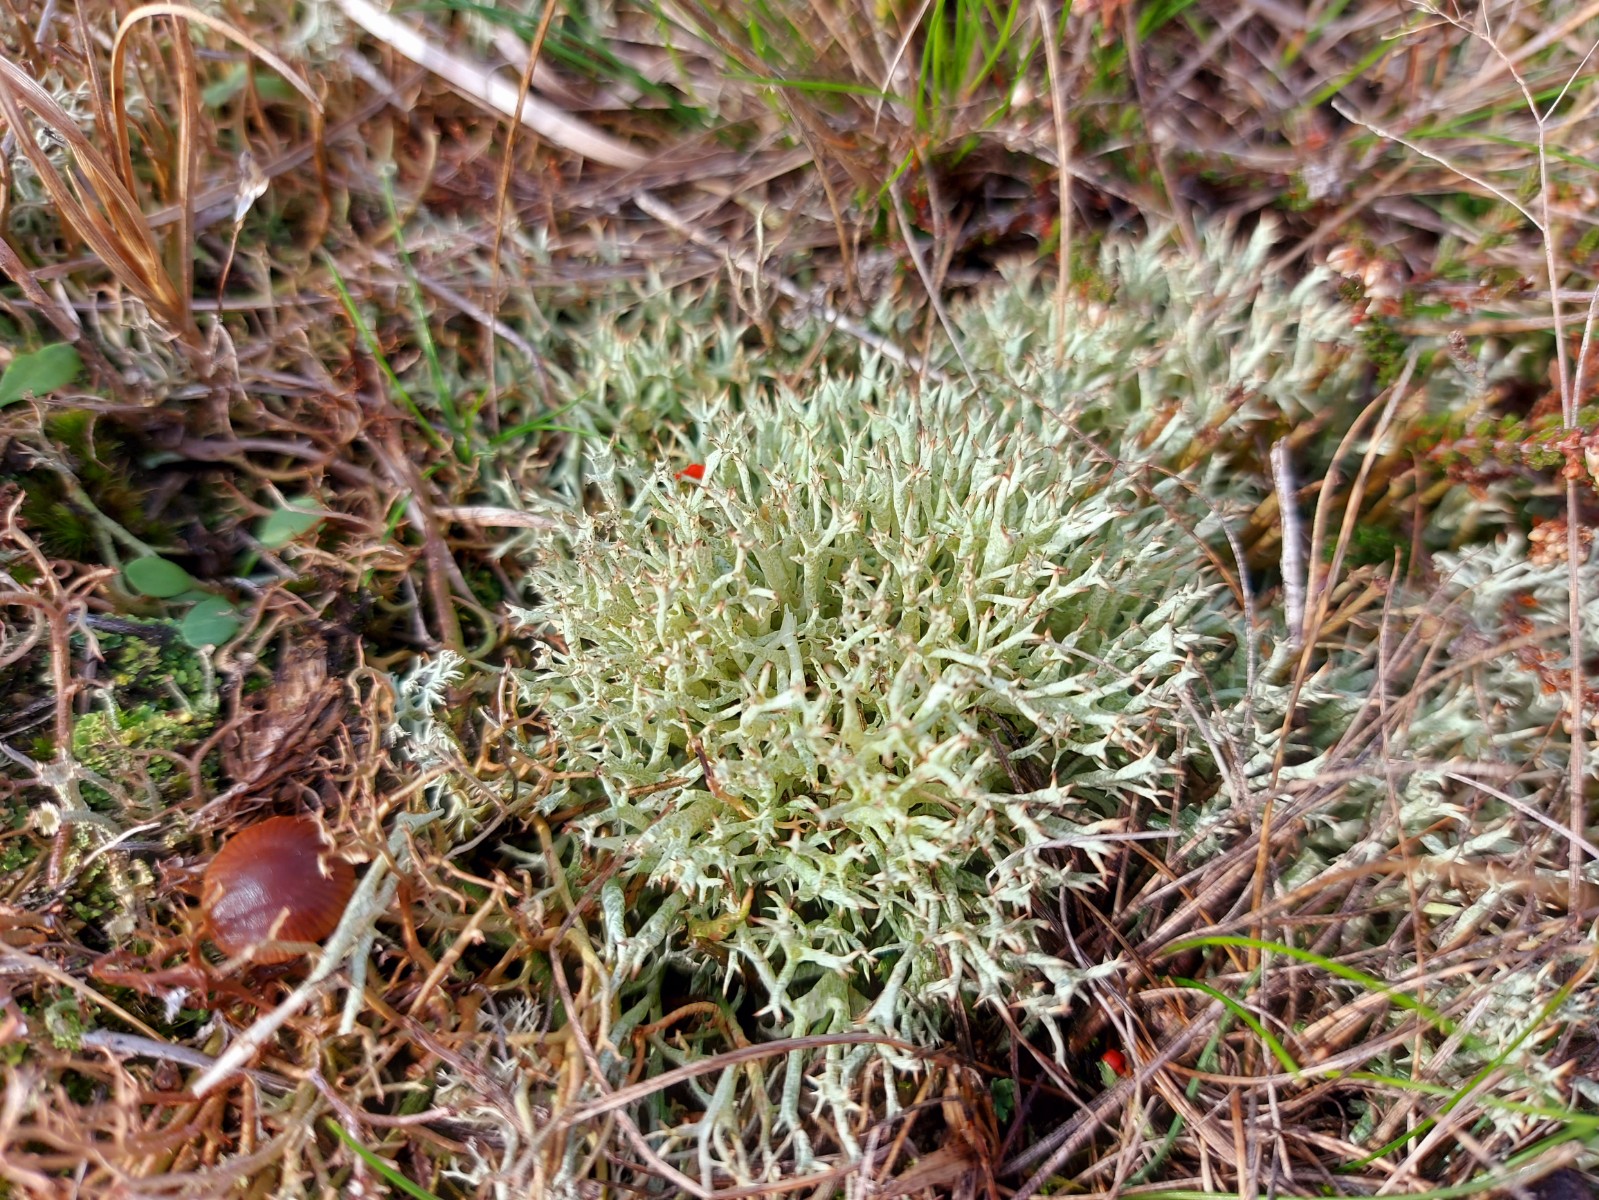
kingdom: Fungi
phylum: Ascomycota
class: Lecanoromycetes
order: Lecanorales
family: Cladoniaceae
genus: Cladonia
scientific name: Cladonia uncialis
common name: pigget bægerlav
